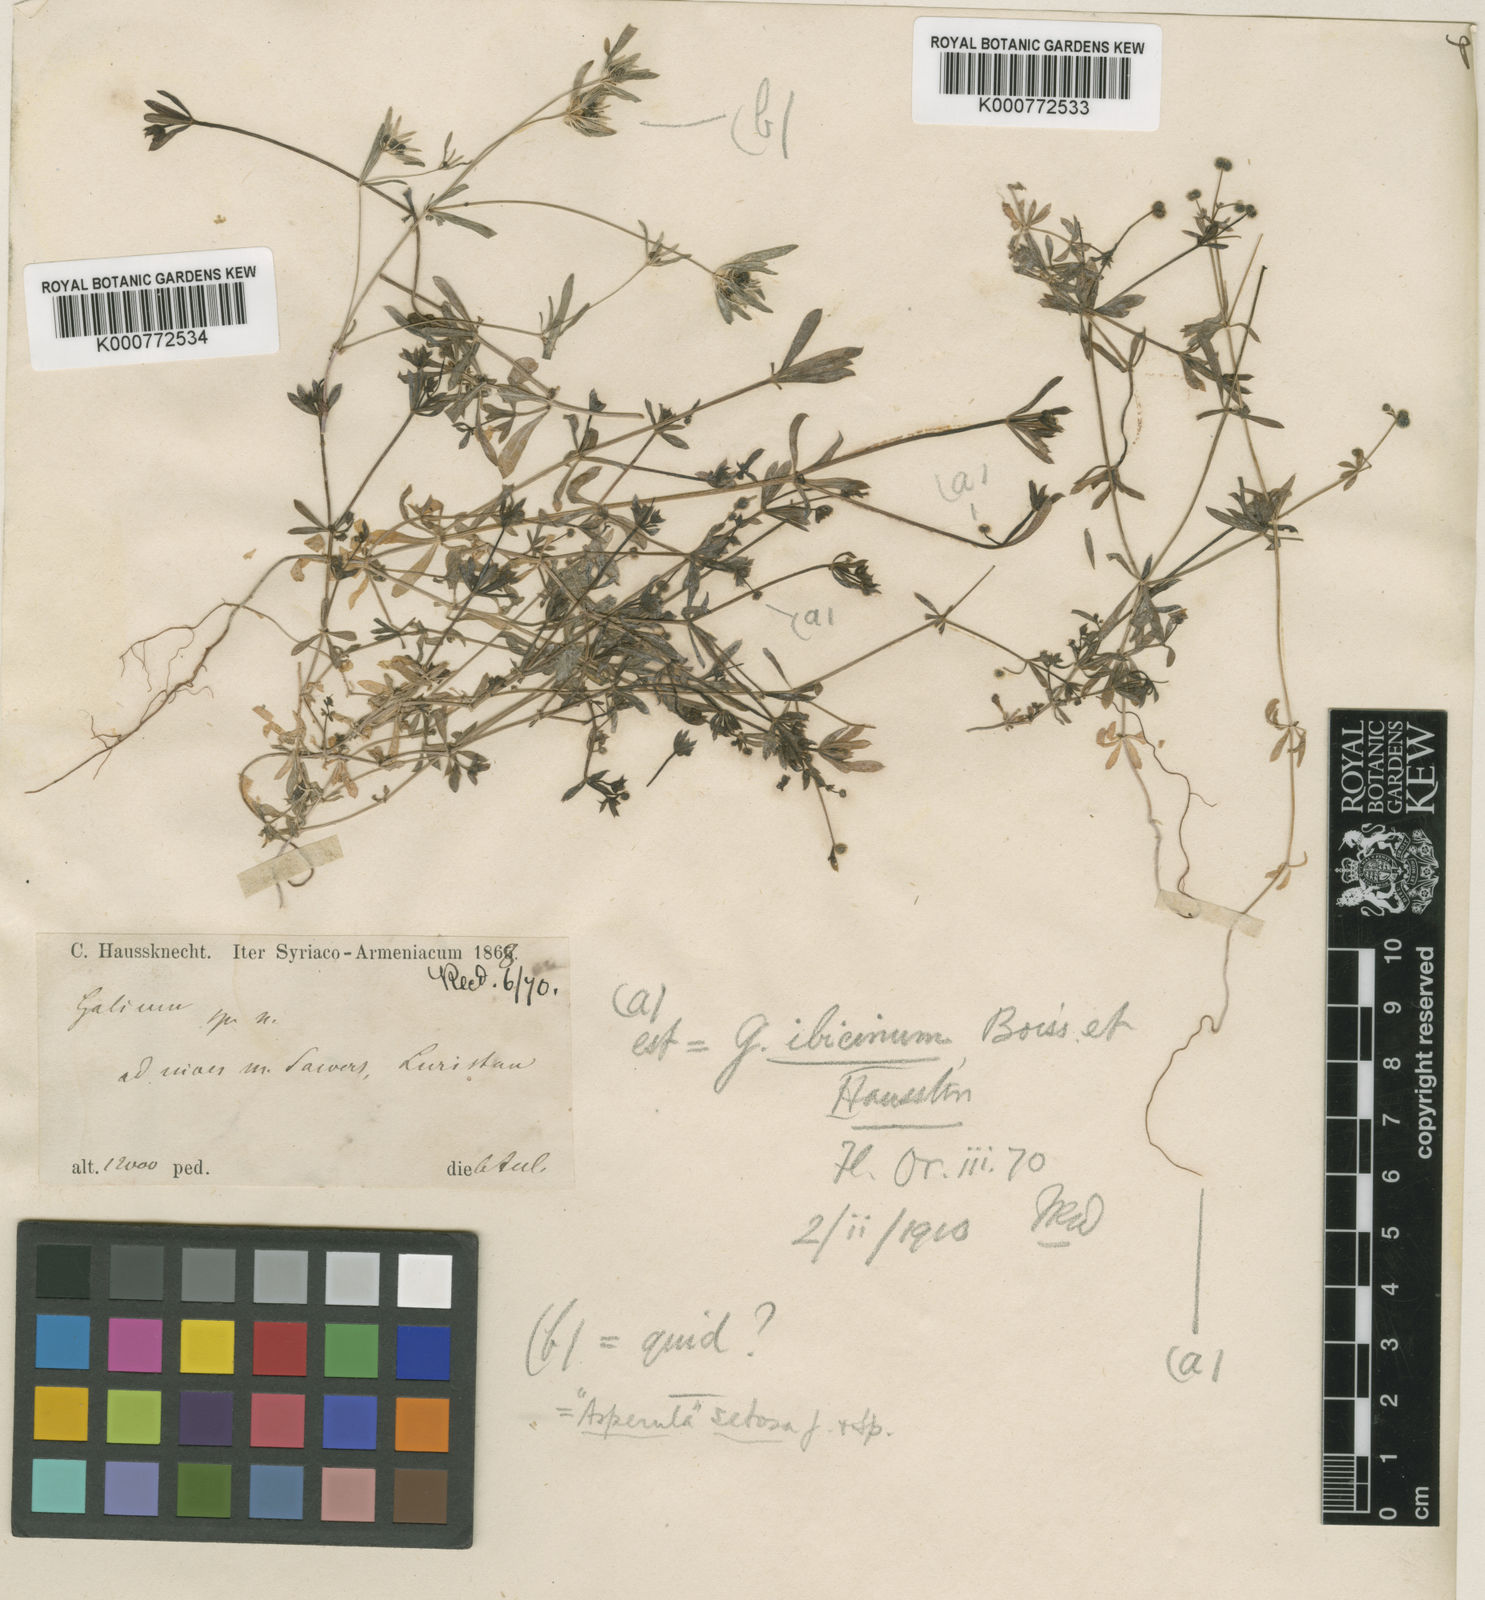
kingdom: Plantae
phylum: Tracheophyta
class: Magnoliopsida
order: Gentianales
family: Rubiaceae
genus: Galium
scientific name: Galium spurium
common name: False cleavers
